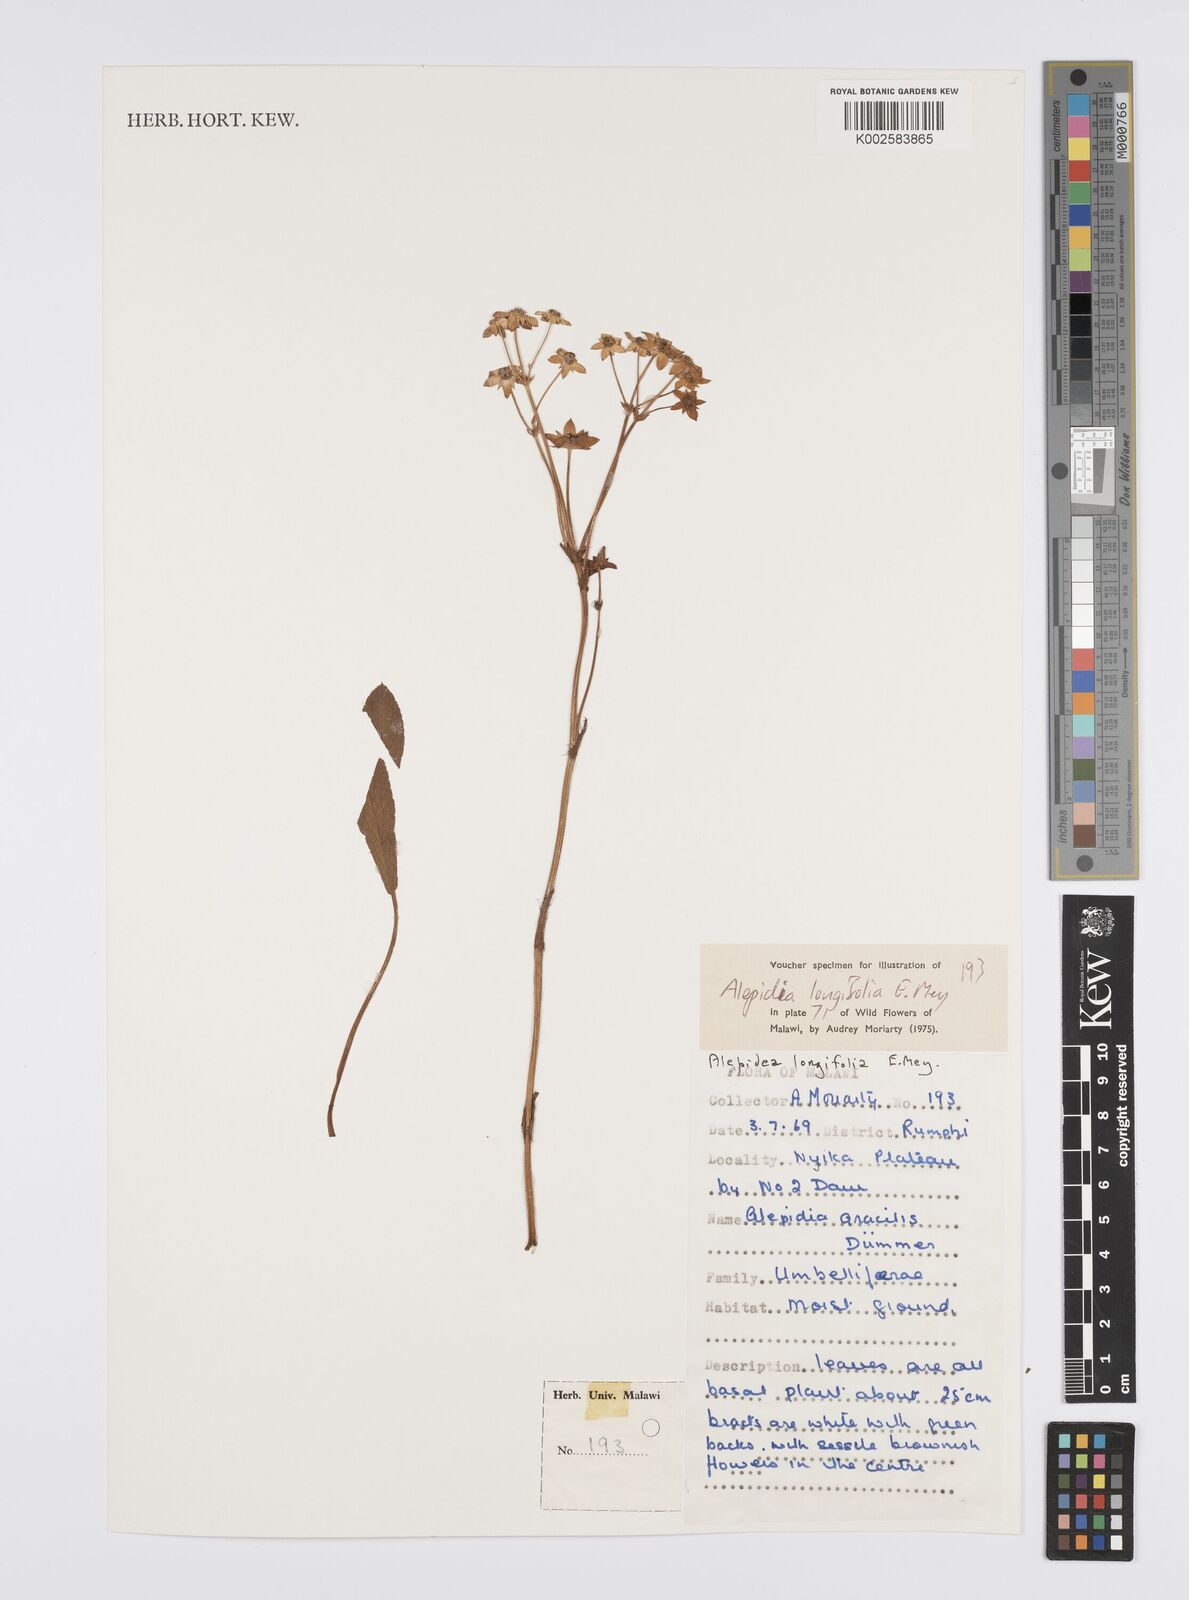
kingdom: Plantae
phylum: Tracheophyta
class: Magnoliopsida
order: Apiales
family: Apiaceae
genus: Alepidea
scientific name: Alepidea
